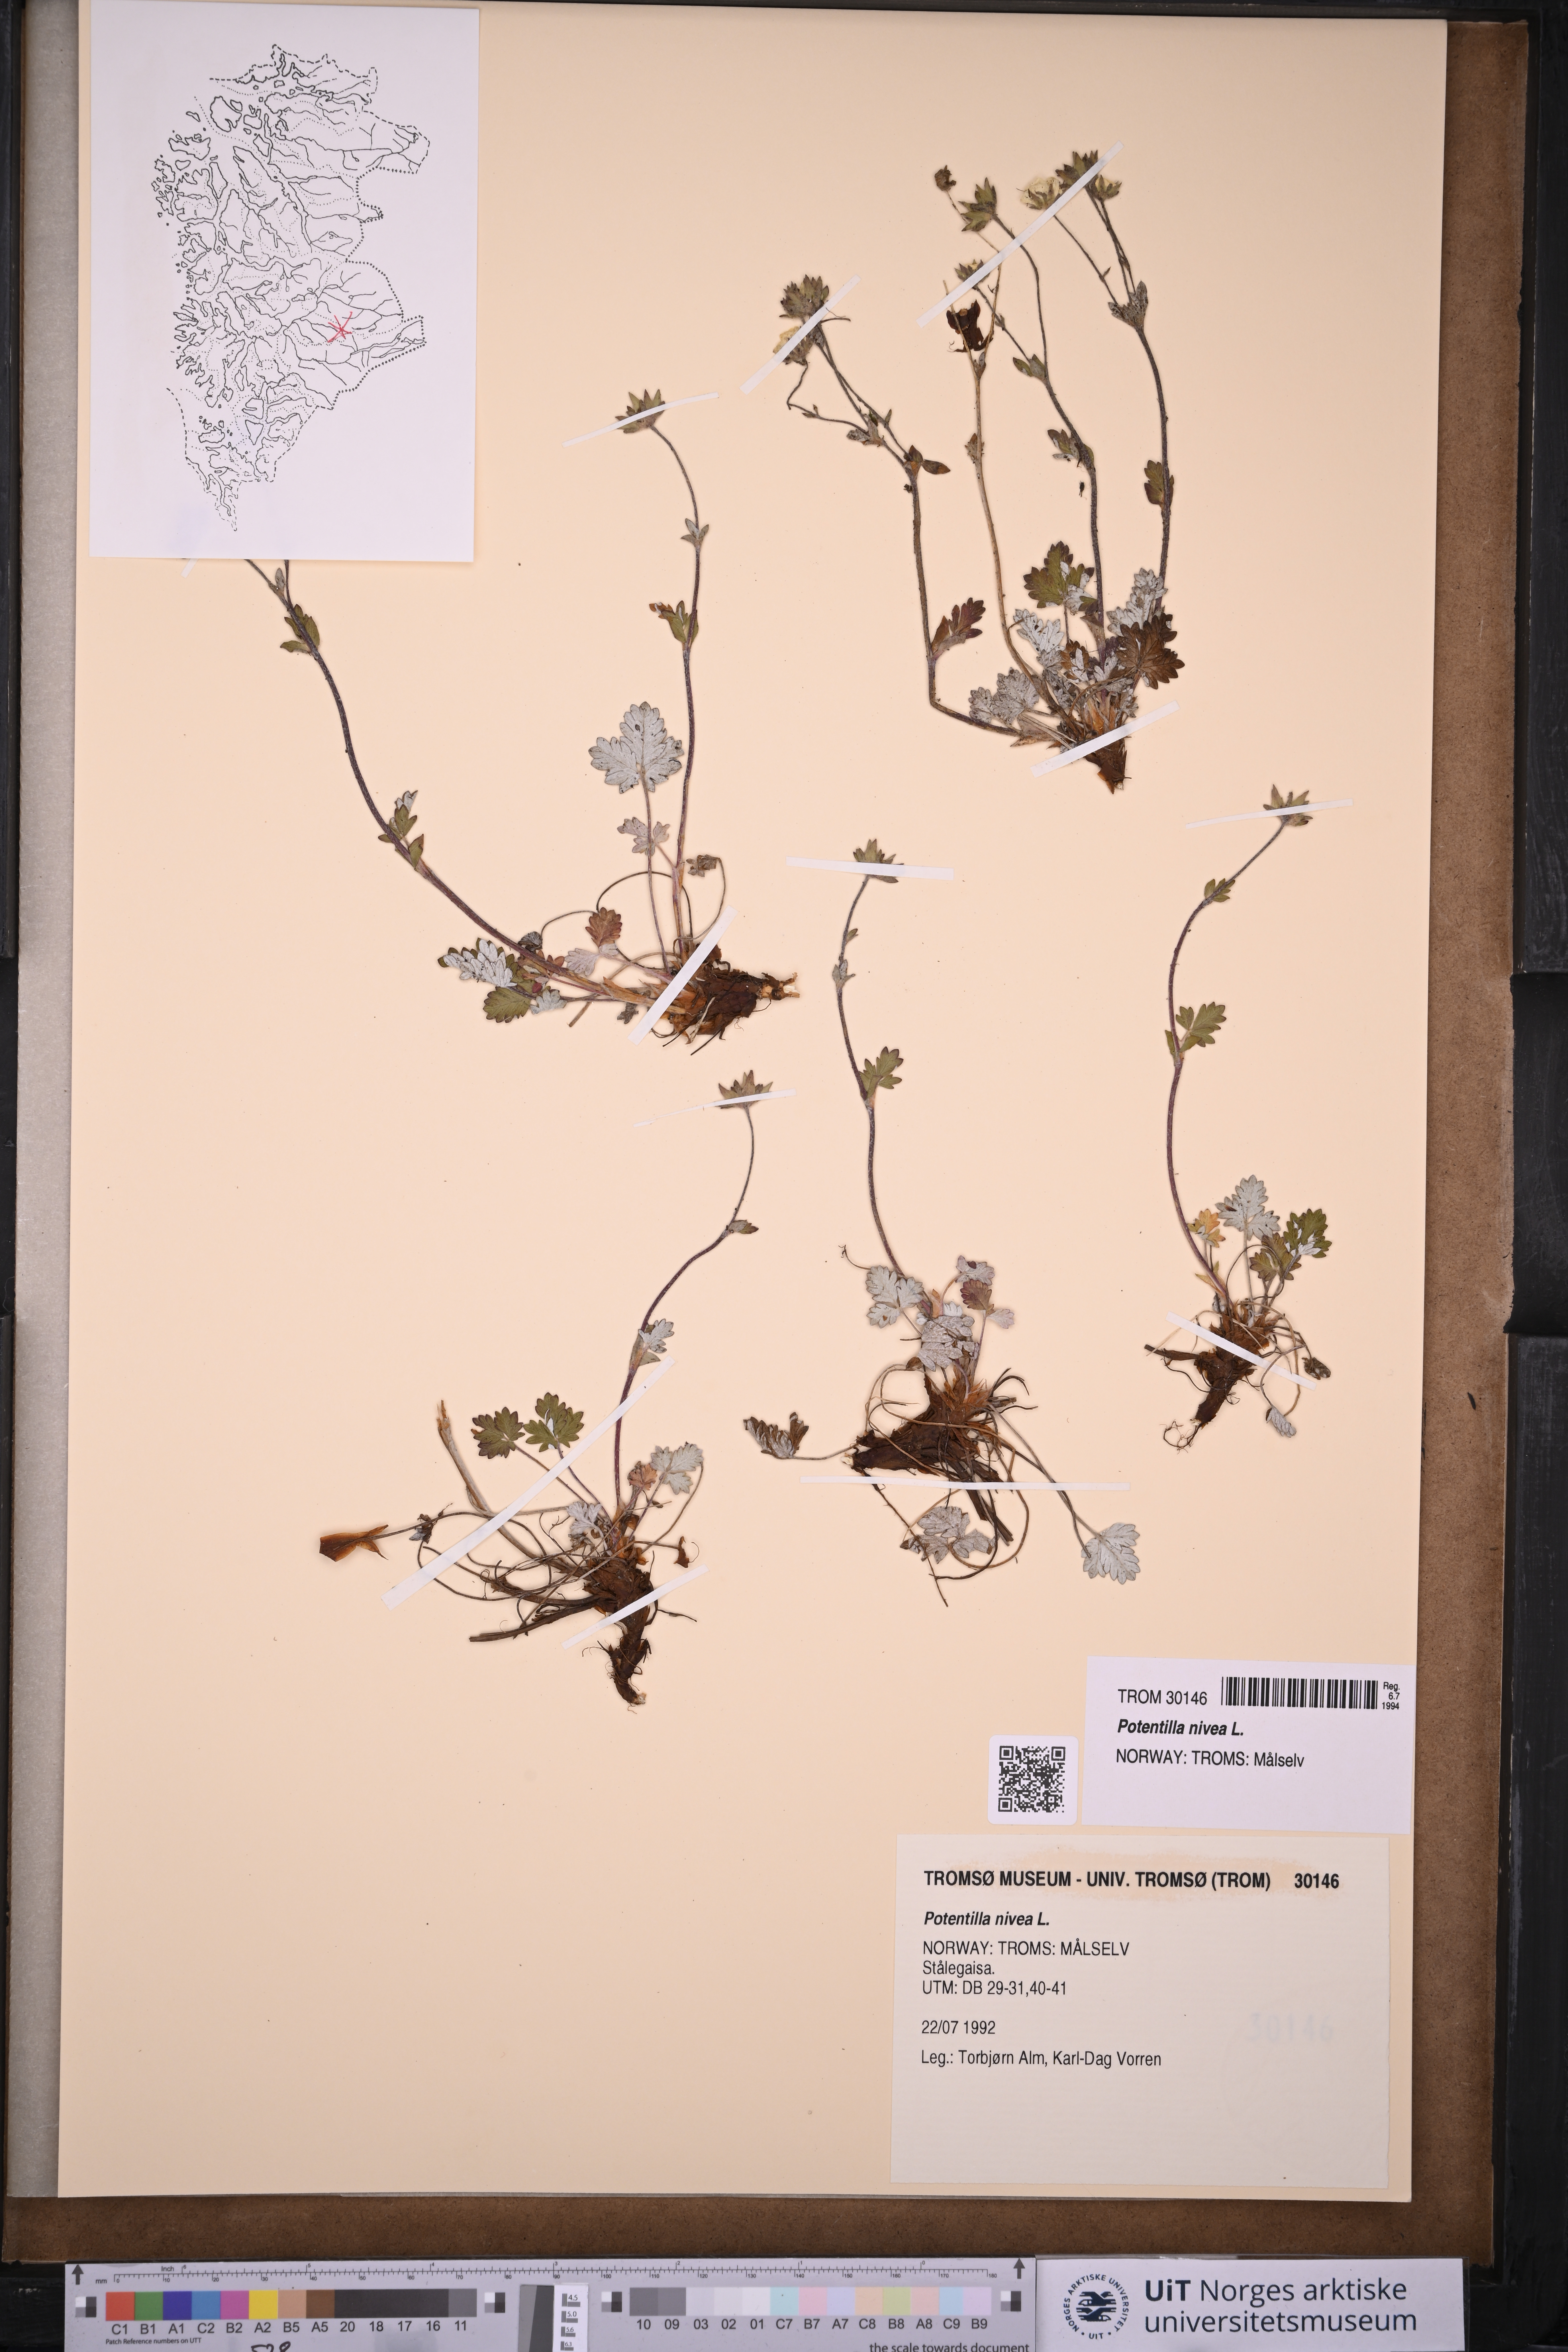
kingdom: Plantae
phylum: Tracheophyta
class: Magnoliopsida
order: Rosales
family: Rosaceae
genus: Potentilla
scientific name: Potentilla arenosa
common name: Bluff cinquefoil
